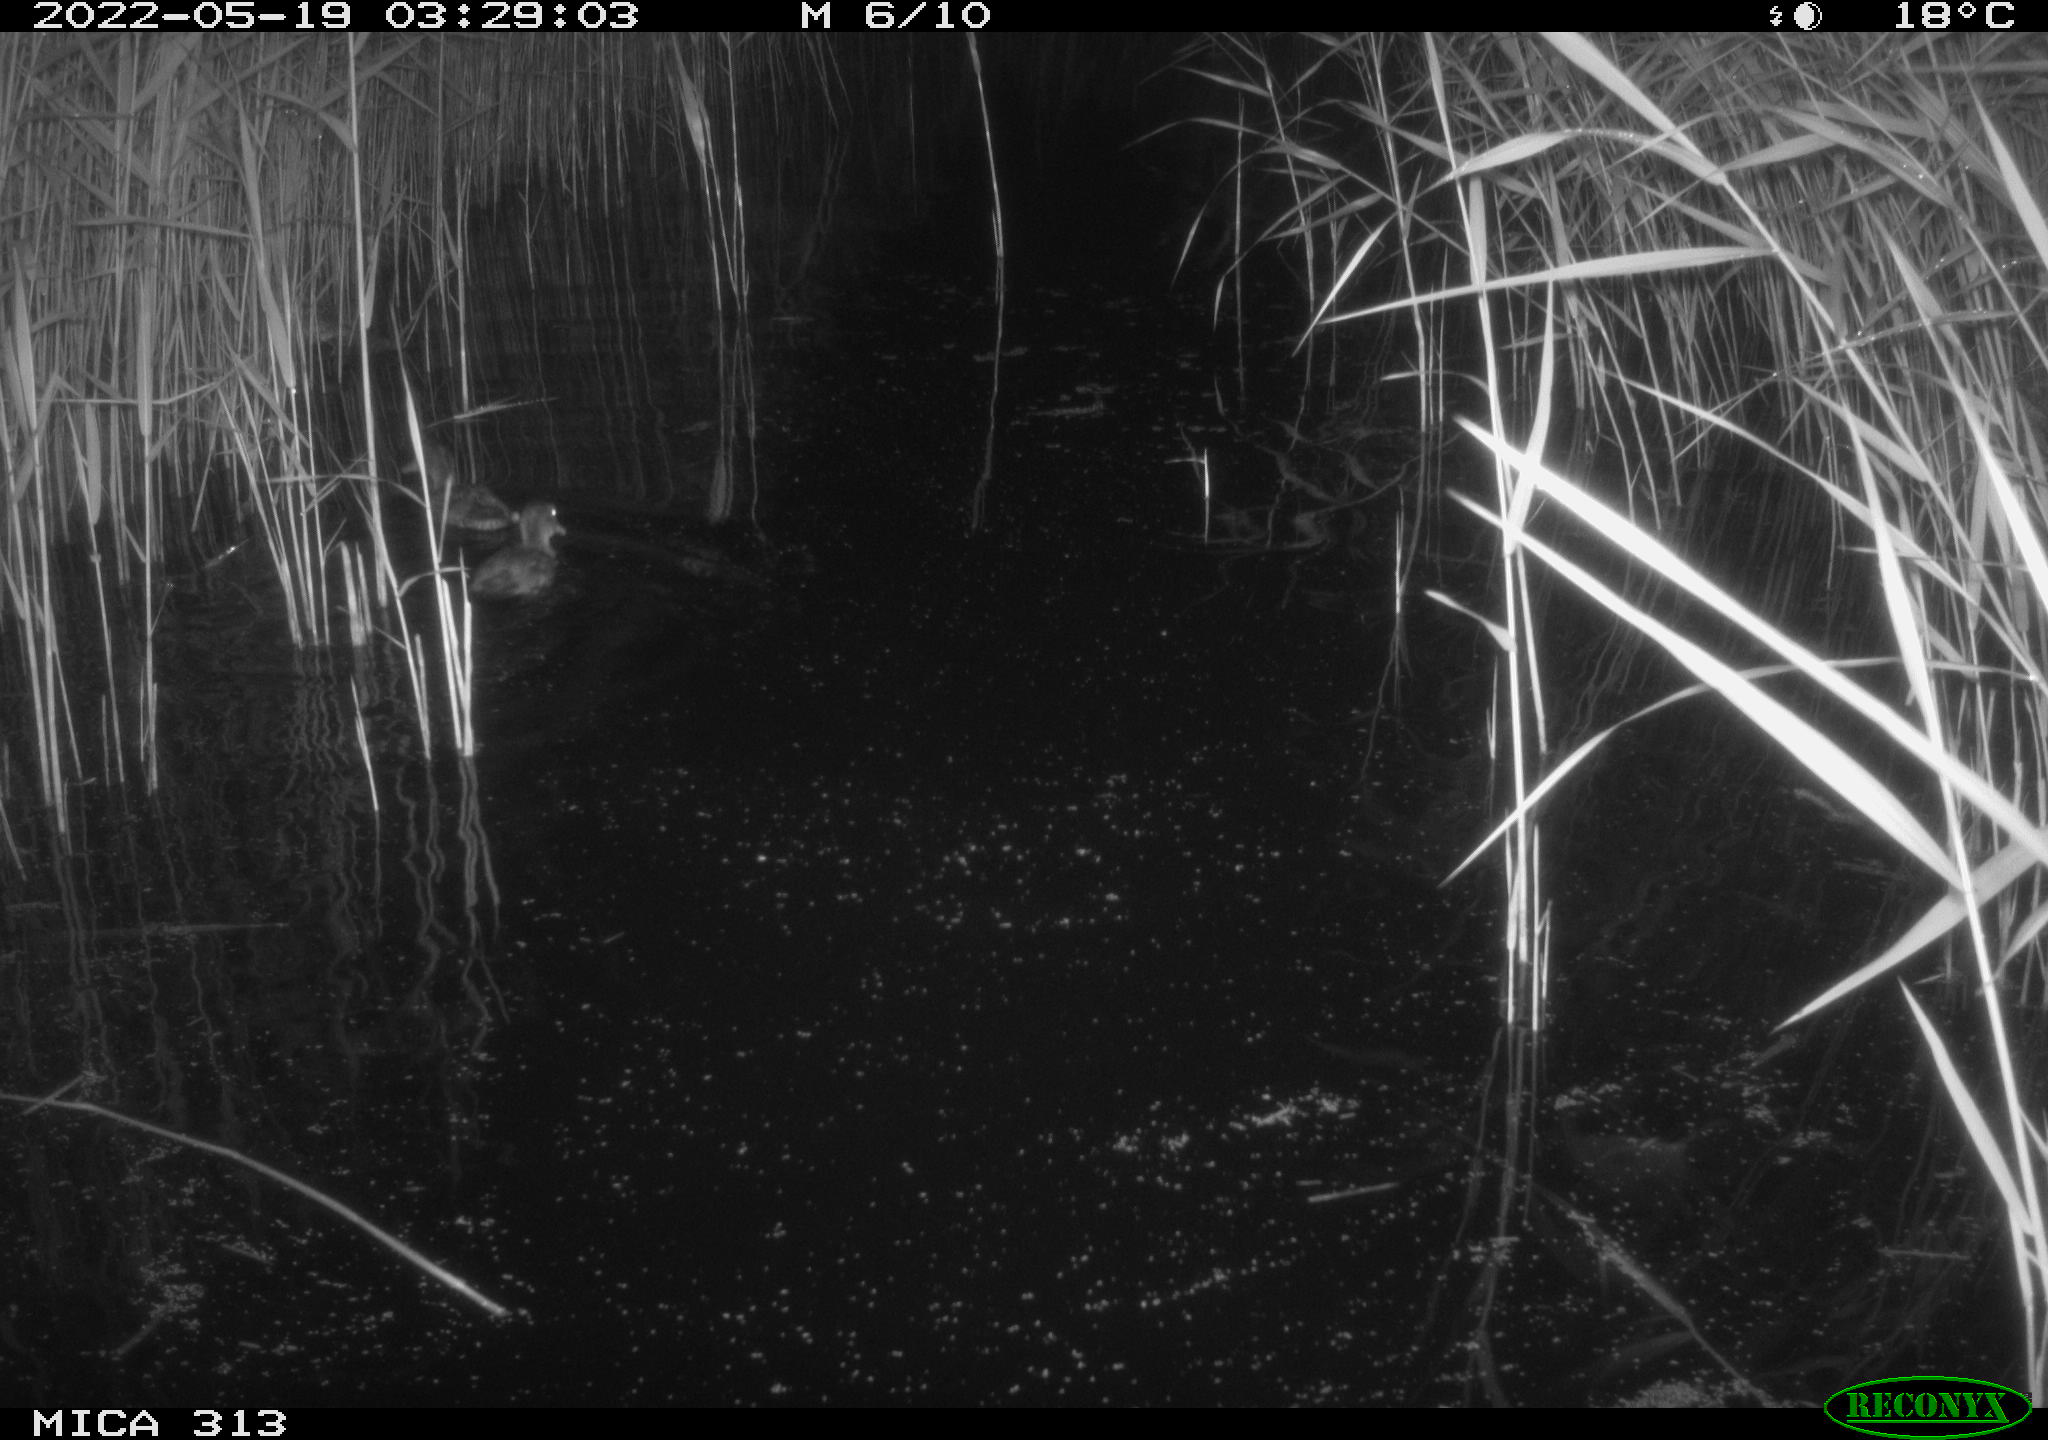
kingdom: Animalia
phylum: Chordata
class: Aves
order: Anseriformes
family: Anatidae
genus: Anas
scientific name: Anas platyrhynchos
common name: Mallard
